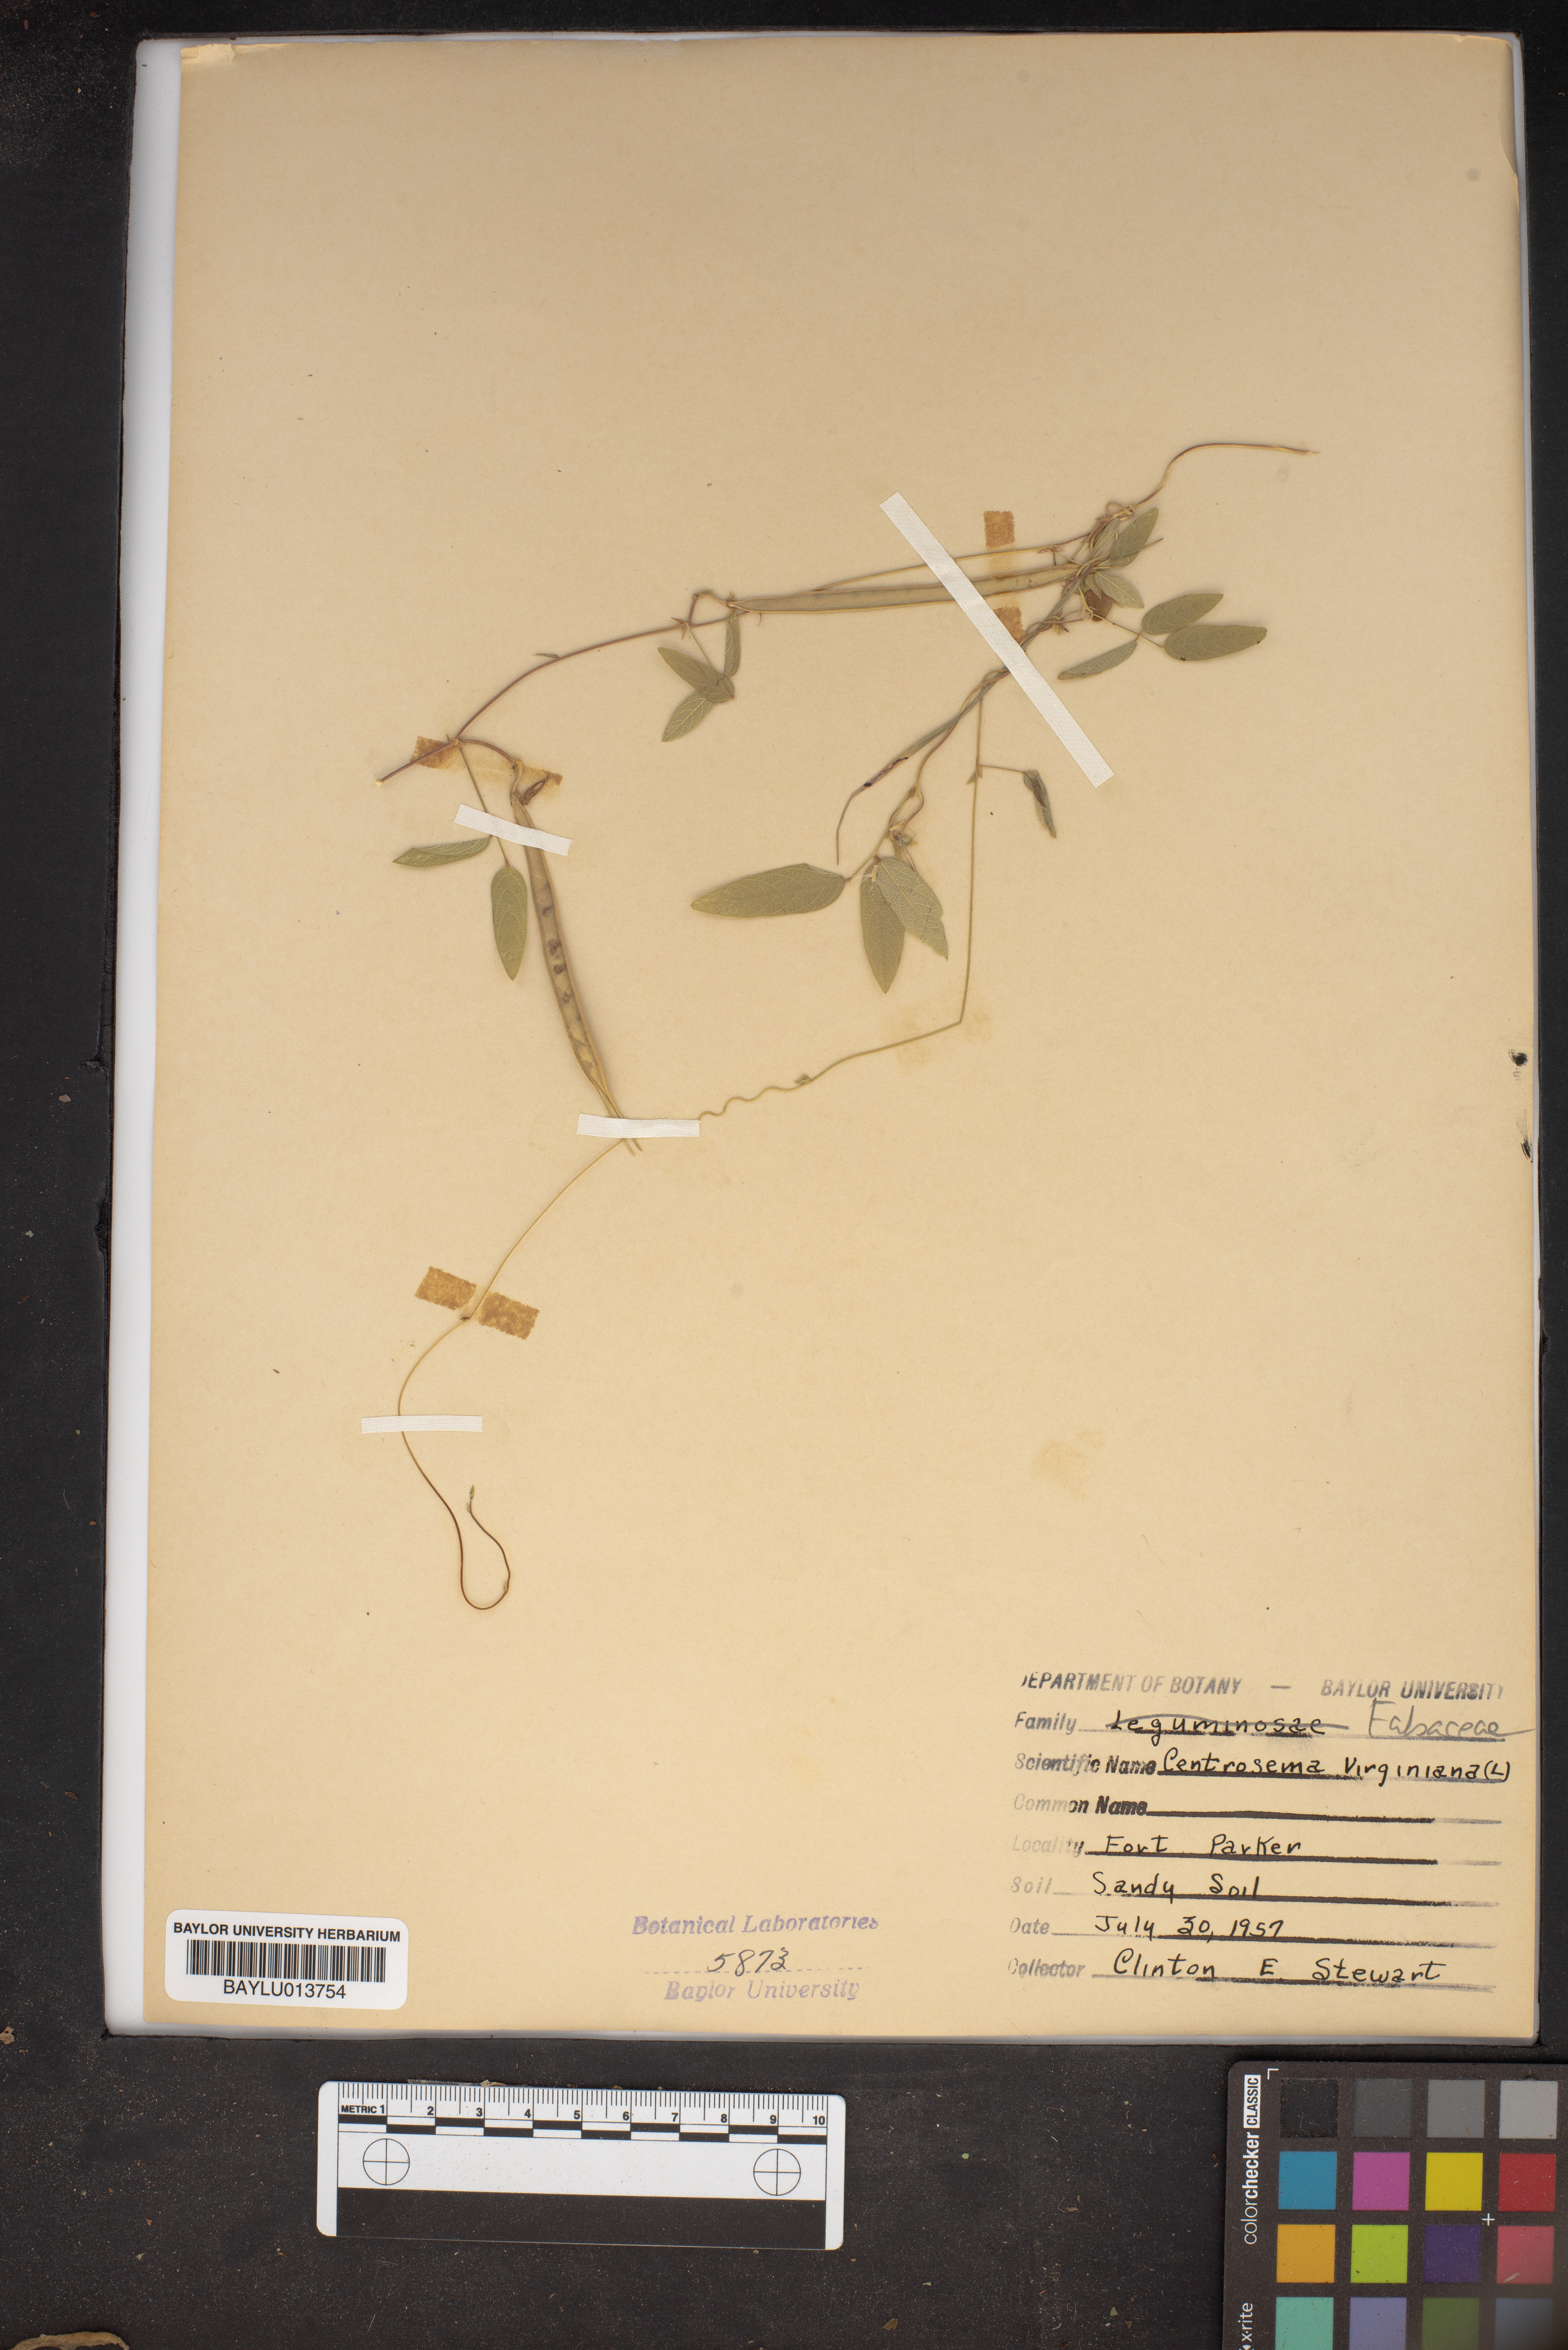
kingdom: Plantae
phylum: Tracheophyta
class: Magnoliopsida
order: Fabales
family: Fabaceae
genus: Centrosema
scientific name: Centrosema virginianum
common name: Butterfly-pea
